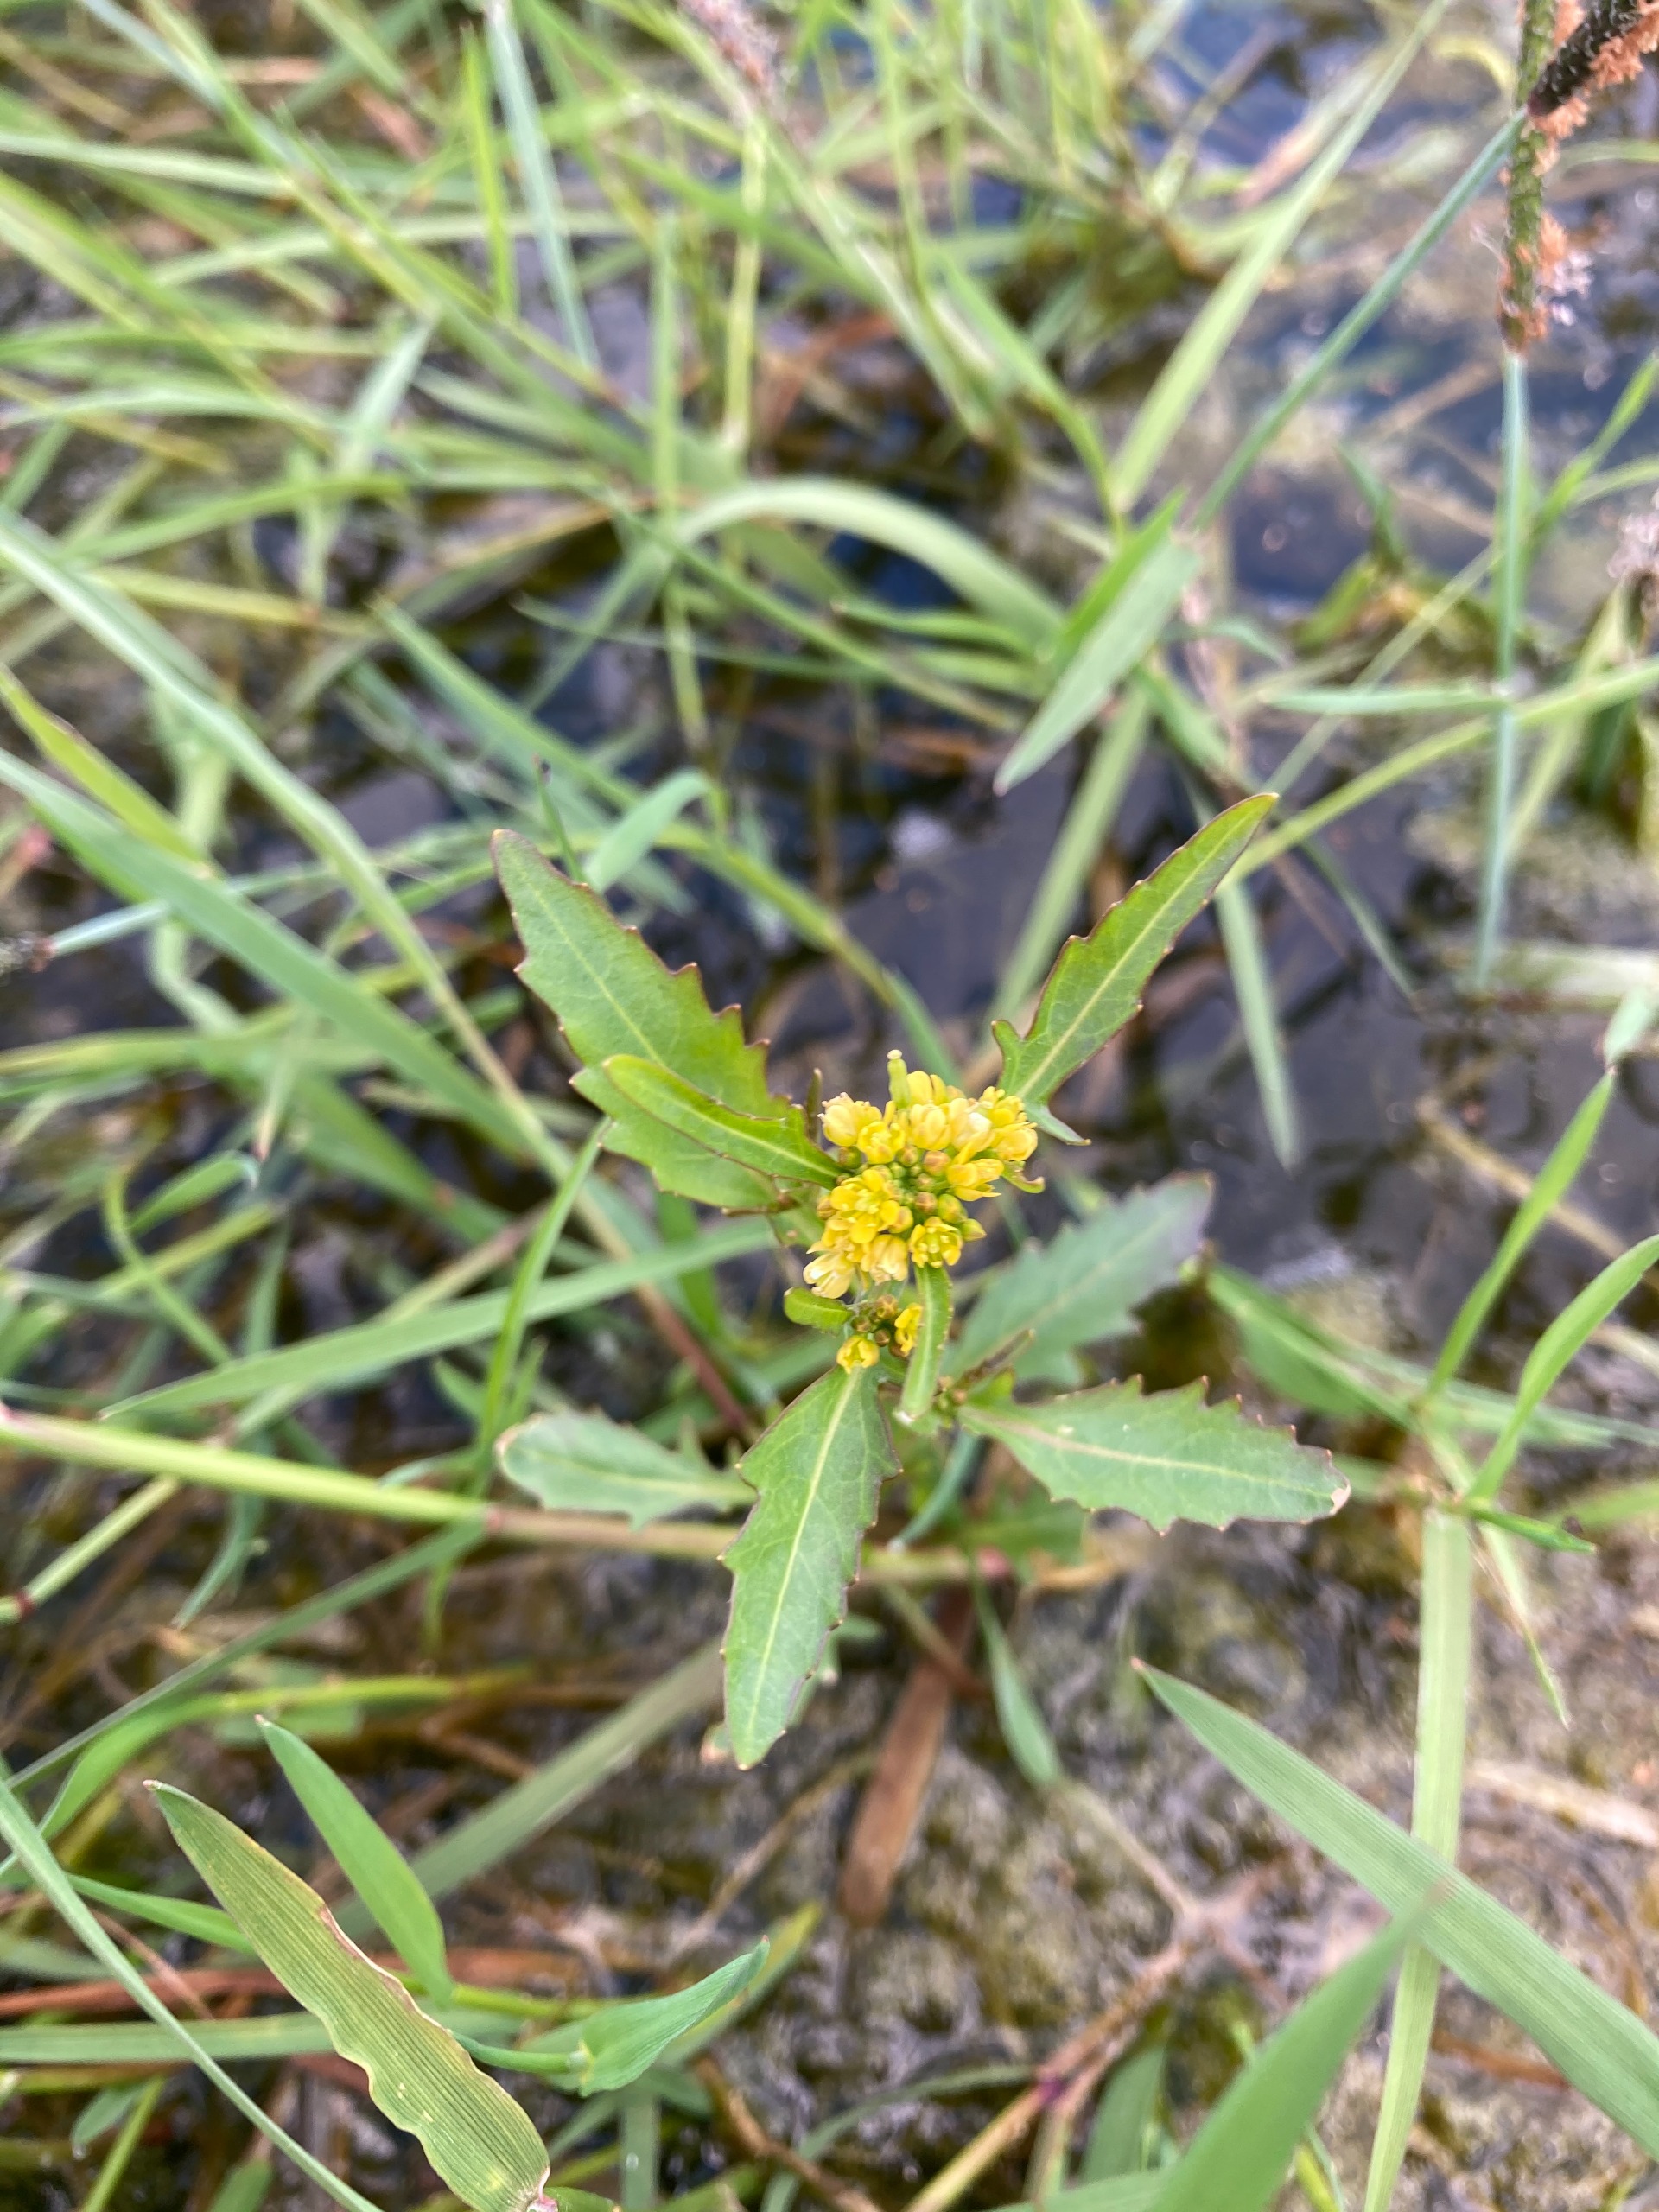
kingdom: Plantae
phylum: Tracheophyta
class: Magnoliopsida
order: Brassicales
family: Brassicaceae
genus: Rorippa
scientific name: Rorippa amphibia
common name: Vandpeberrod
